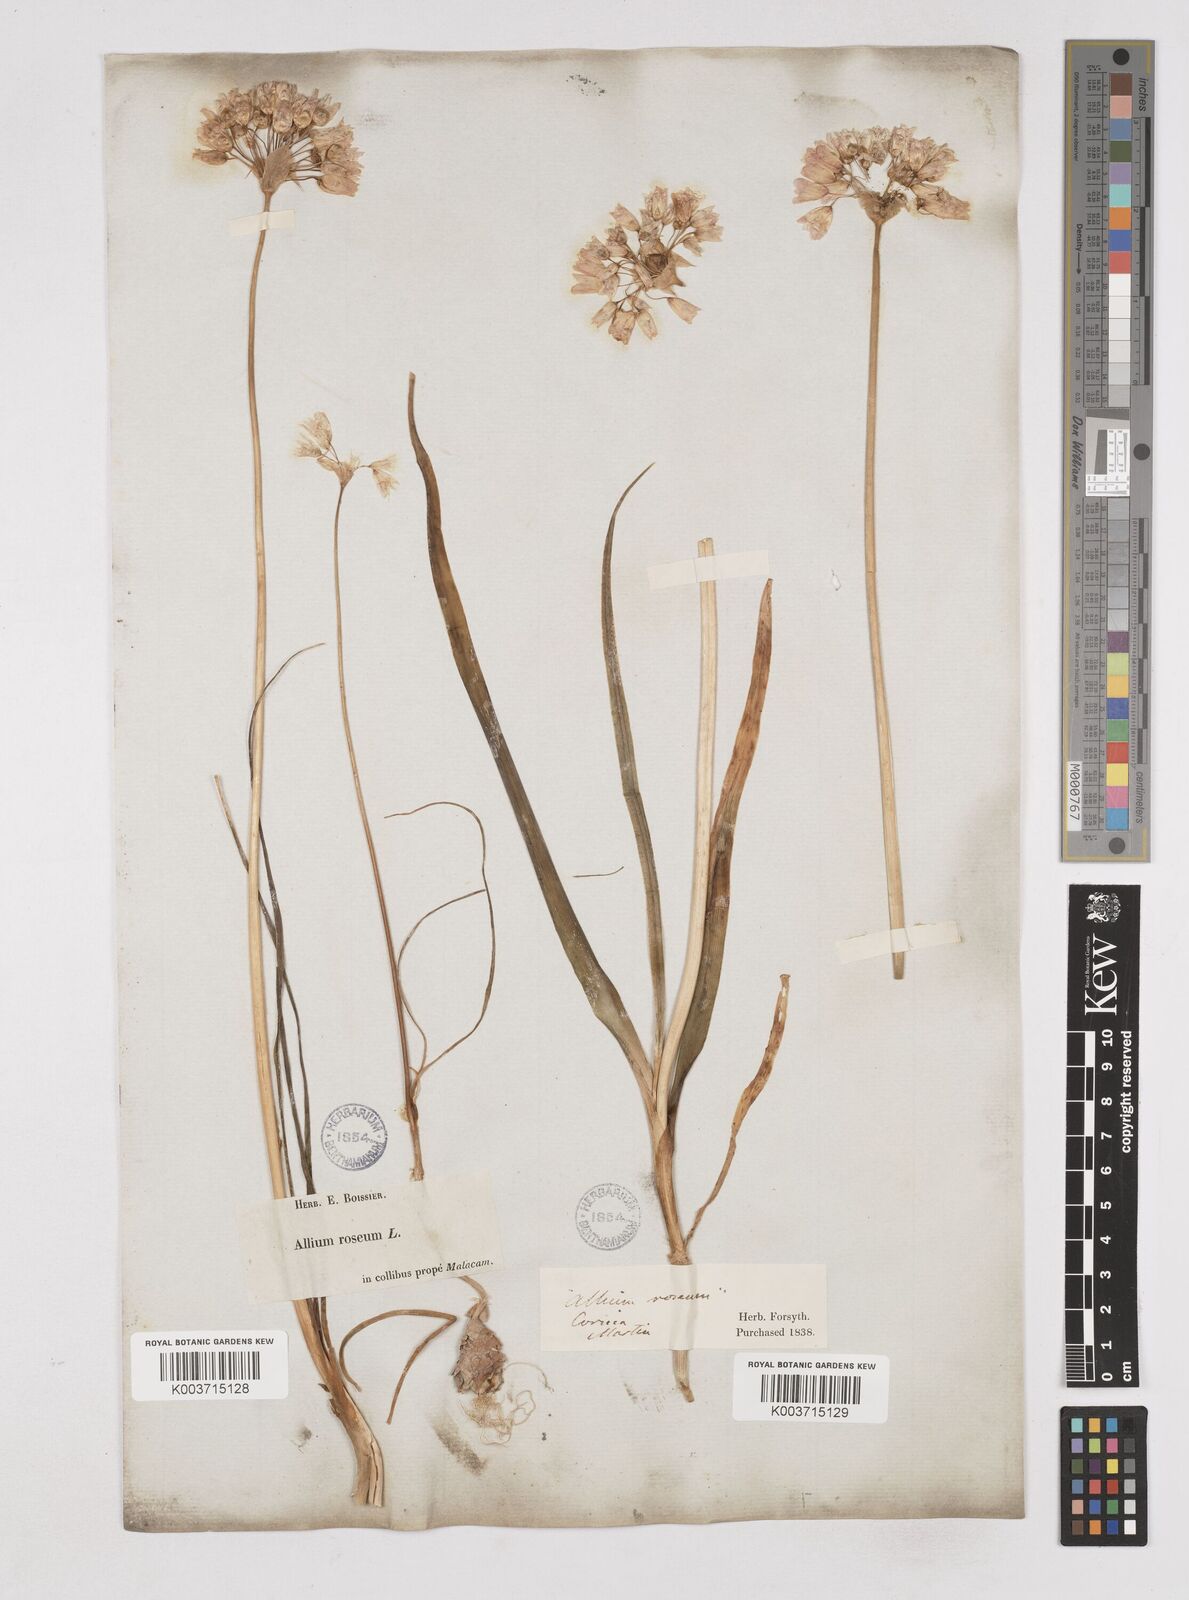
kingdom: Plantae
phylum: Tracheophyta
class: Liliopsida
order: Asparagales
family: Amaryllidaceae
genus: Allium
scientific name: Allium roseum
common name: Rosy garlic
